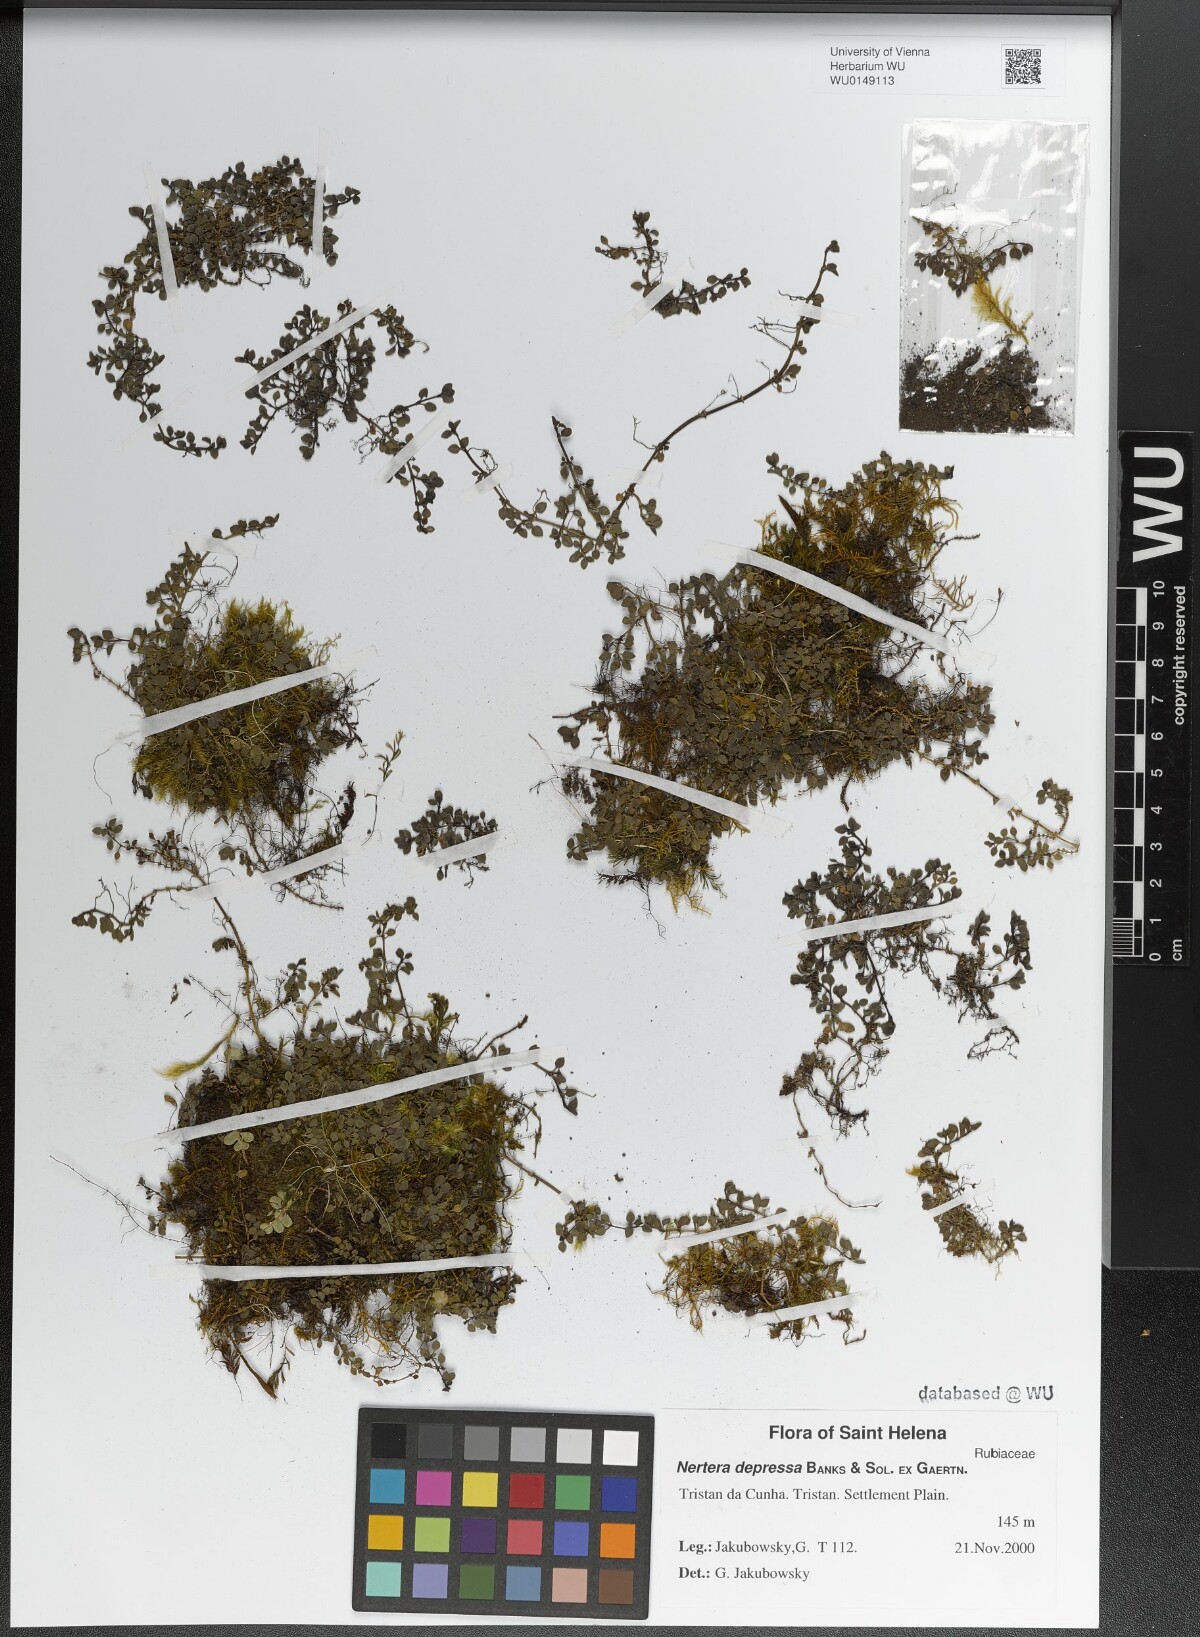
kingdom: Plantae
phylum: Tracheophyta
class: Magnoliopsida
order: Gentianales
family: Rubiaceae
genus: Nertera
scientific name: Nertera granadensis
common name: Beadplant
